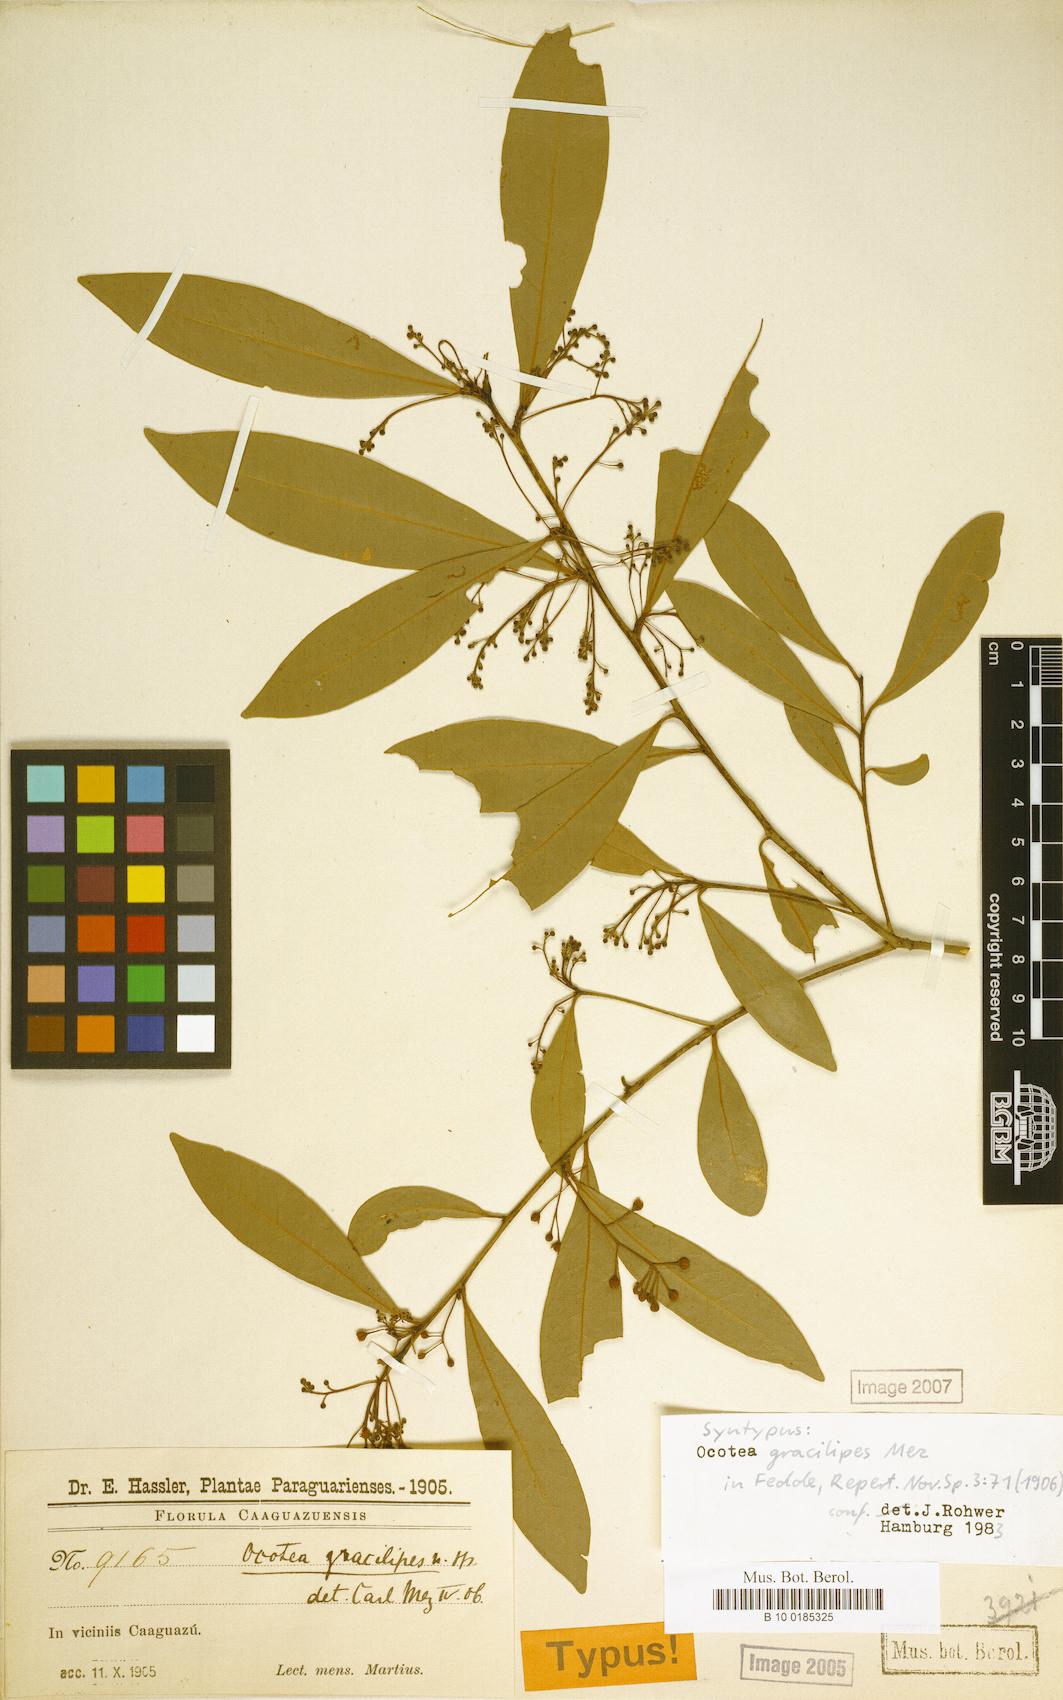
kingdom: Plantae
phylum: Tracheophyta
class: Magnoliopsida
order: Laurales
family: Lauraceae
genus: Ocotea
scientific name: Ocotea lancifolia
